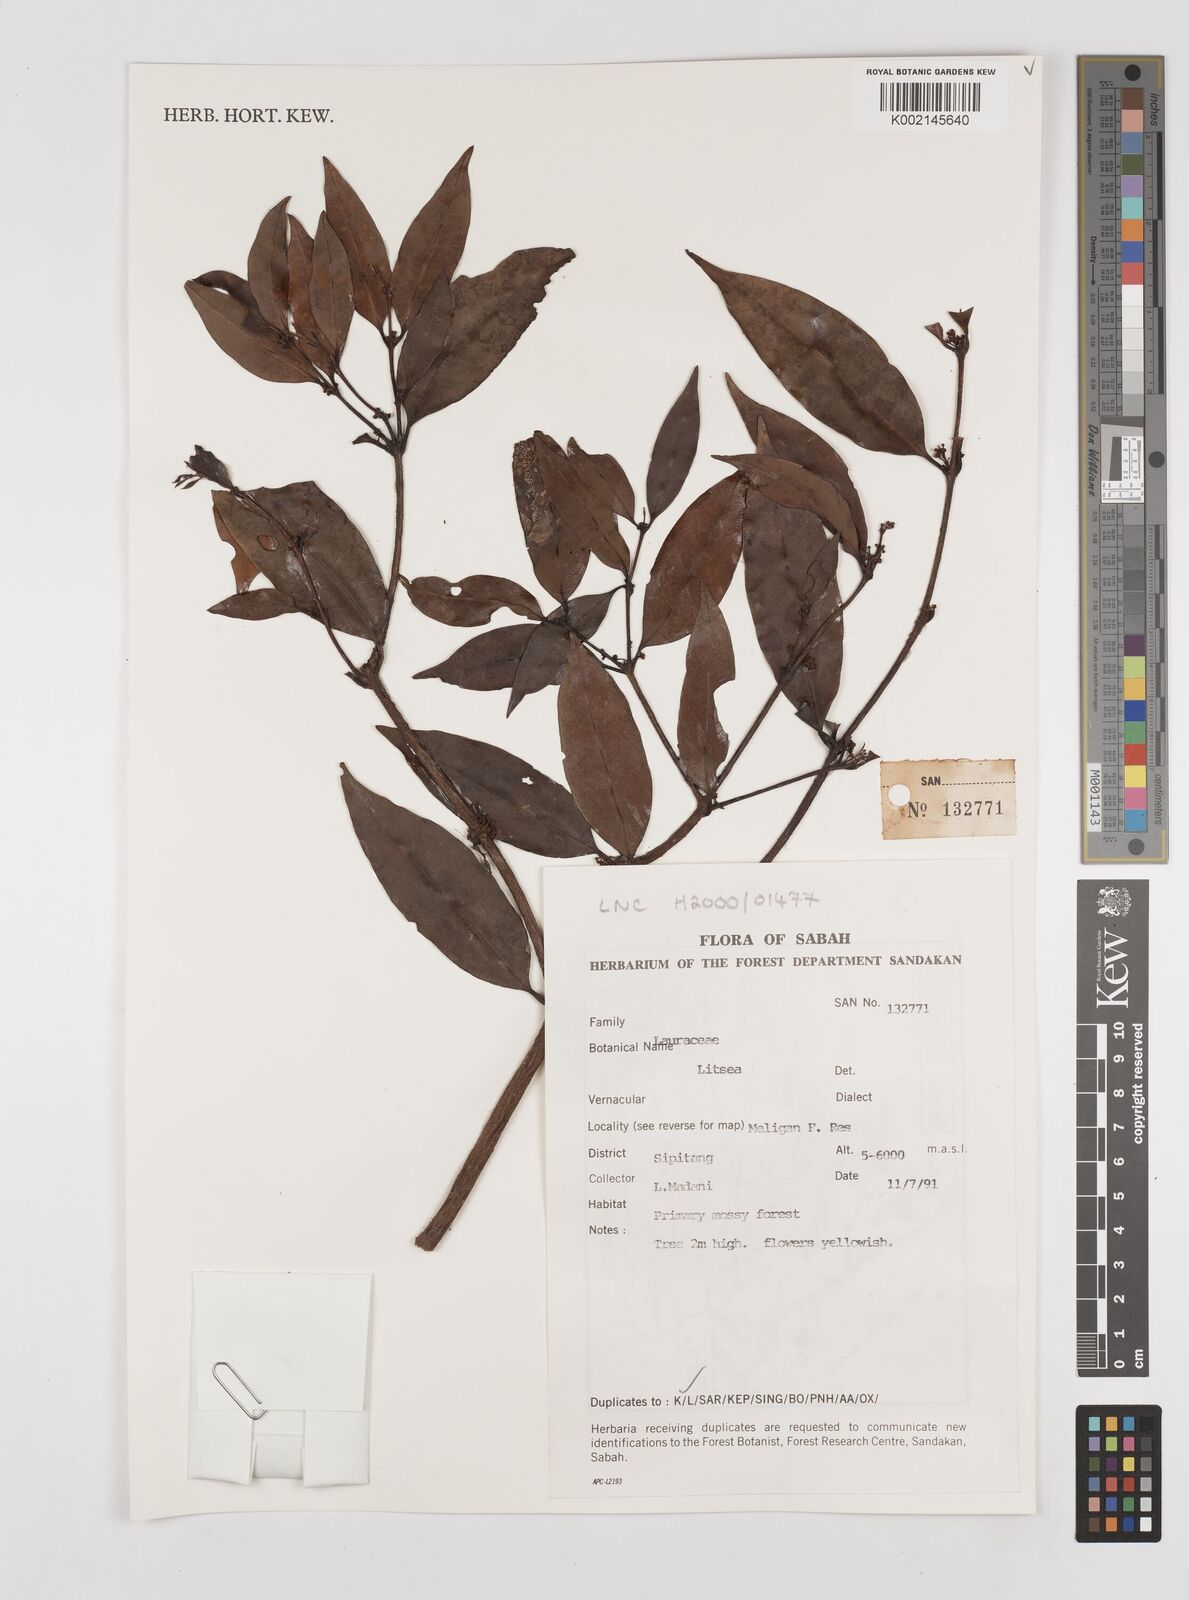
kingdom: Plantae
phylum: Tracheophyta
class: Magnoliopsida
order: Laurales
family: Lauraceae
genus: Litsea
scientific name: Litsea
